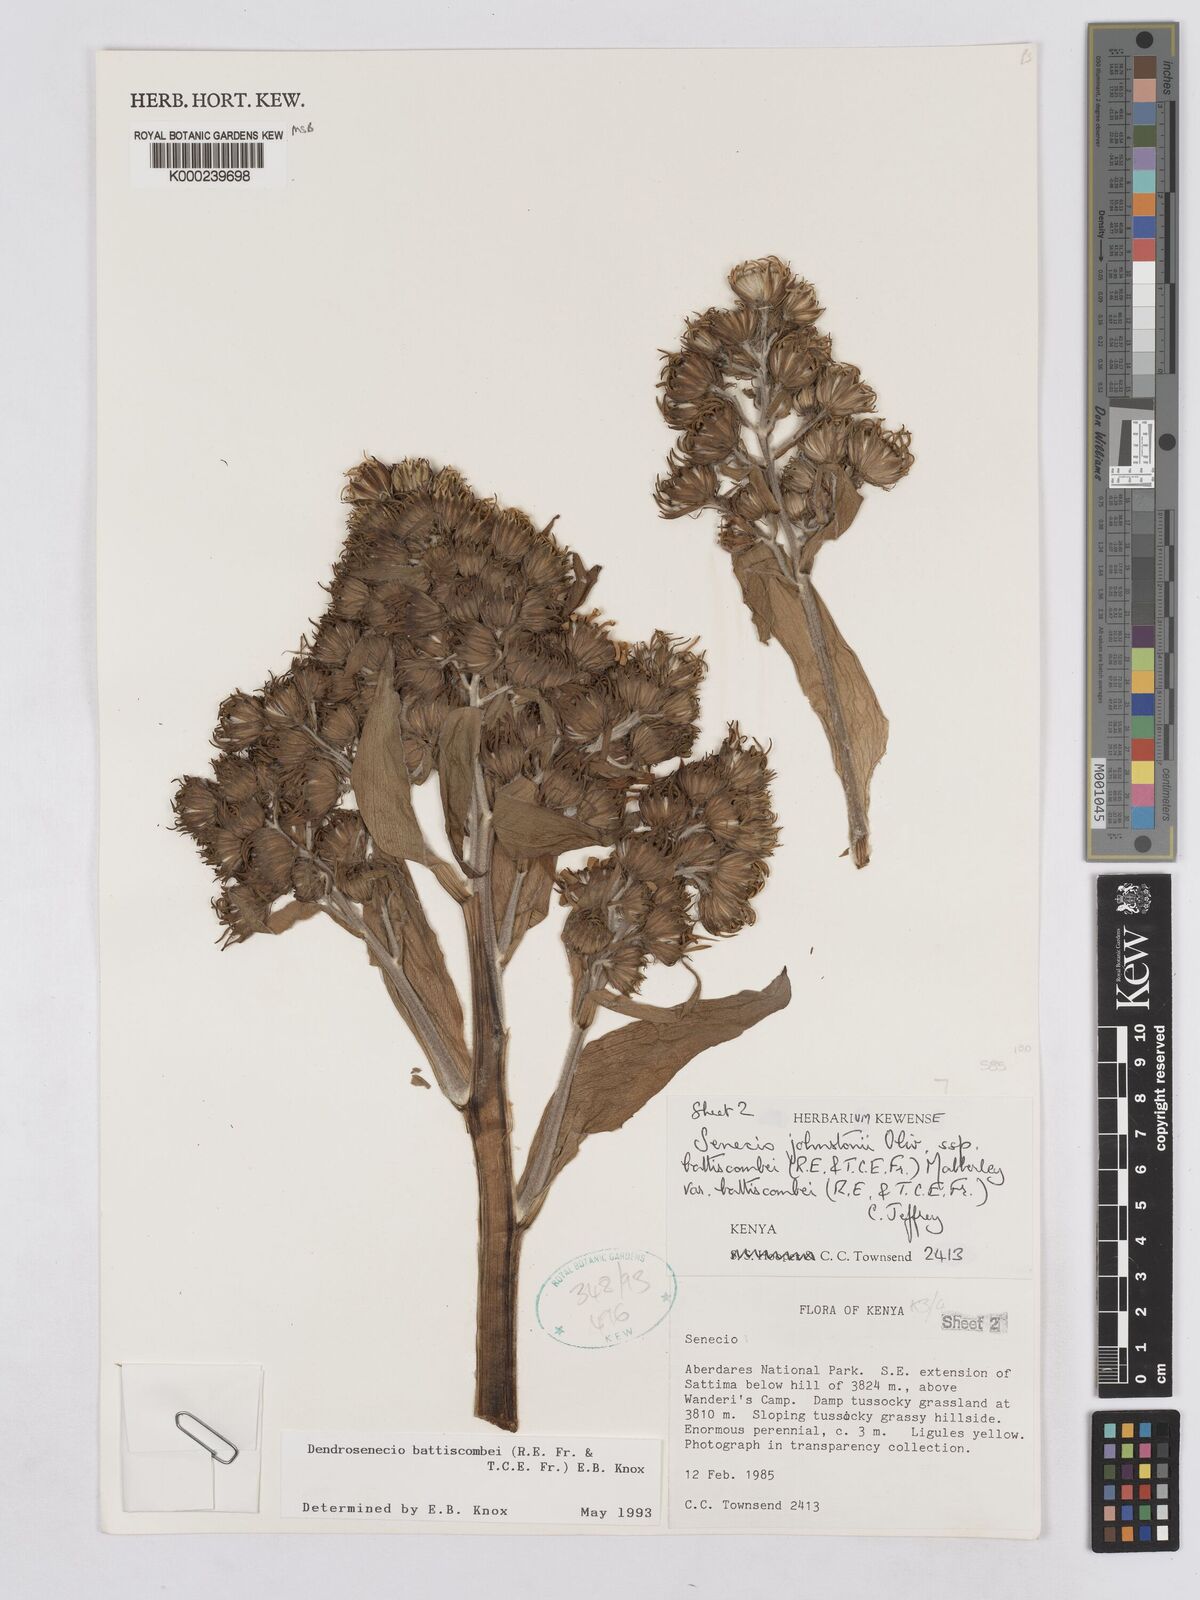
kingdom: Plantae
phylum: Tracheophyta
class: Magnoliopsida
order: Asterales
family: Asteraceae
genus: Dendrosenecio
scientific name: Dendrosenecio battiscombei
